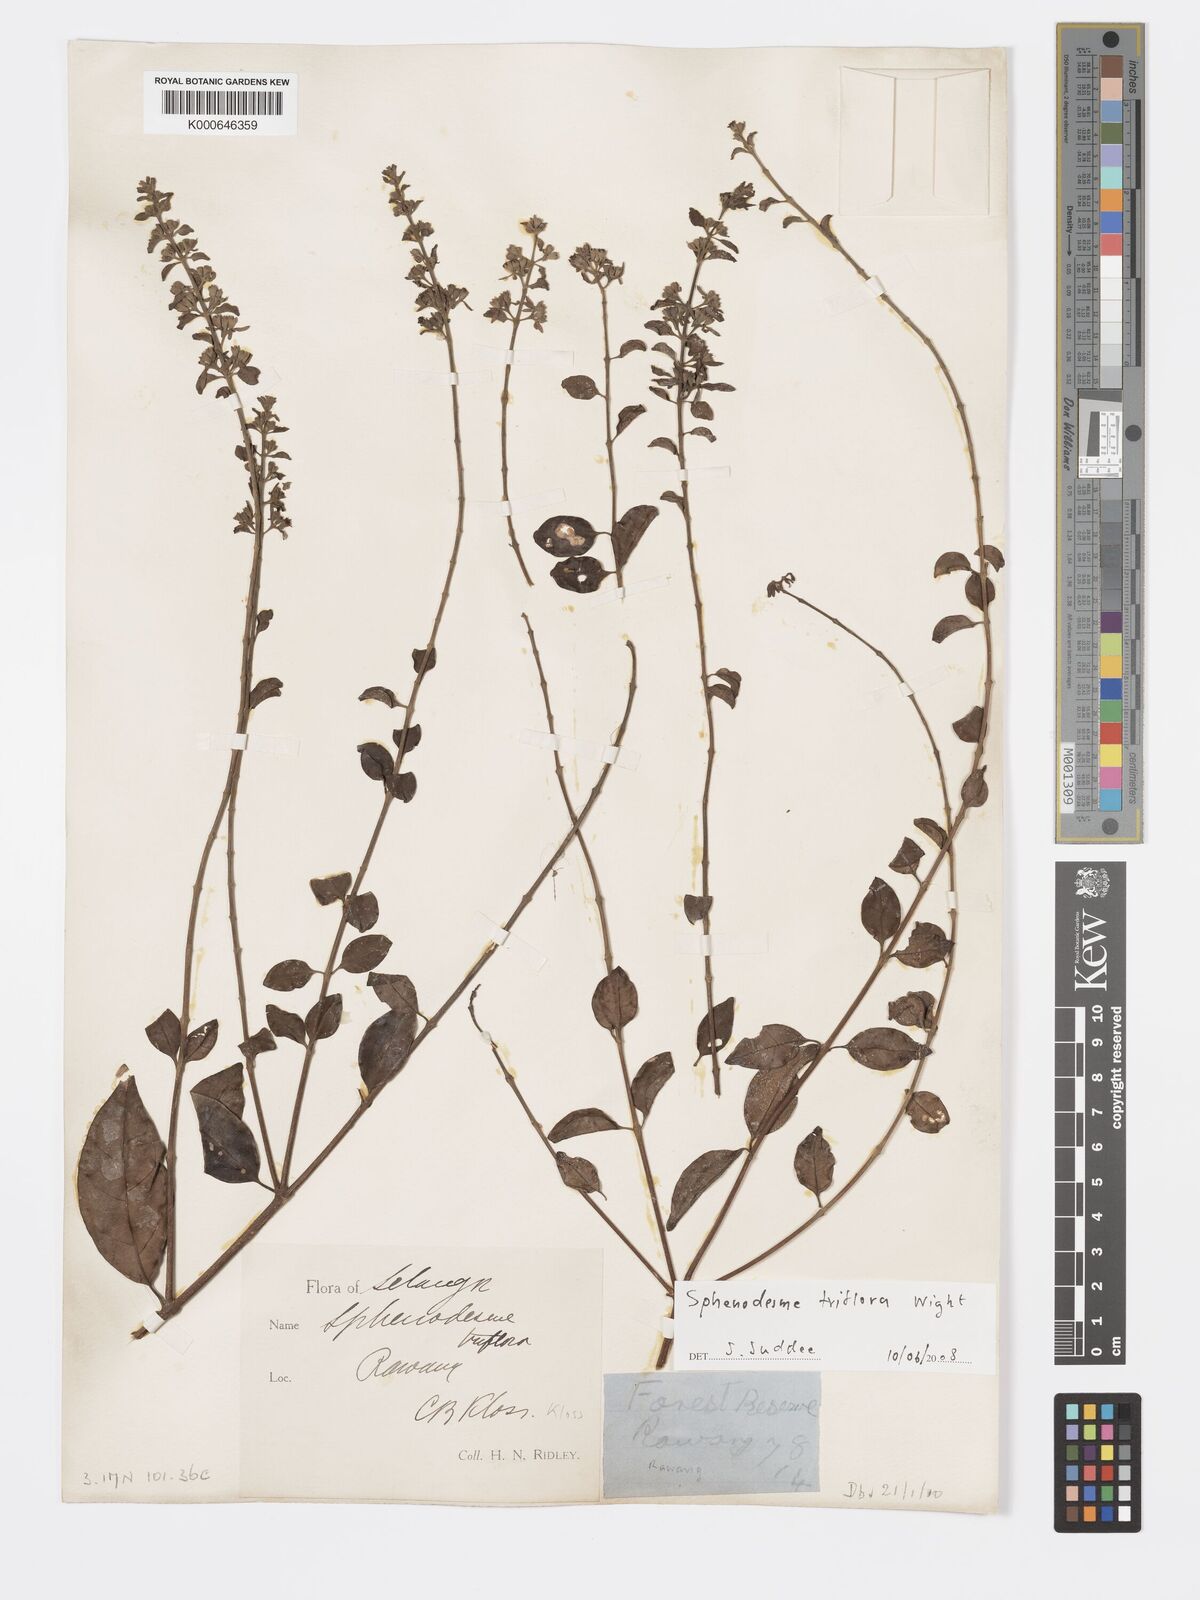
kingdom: Plantae
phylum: Tracheophyta
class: Magnoliopsida
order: Lamiales
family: Lamiaceae
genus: Sphenodesme
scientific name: Sphenodesme
